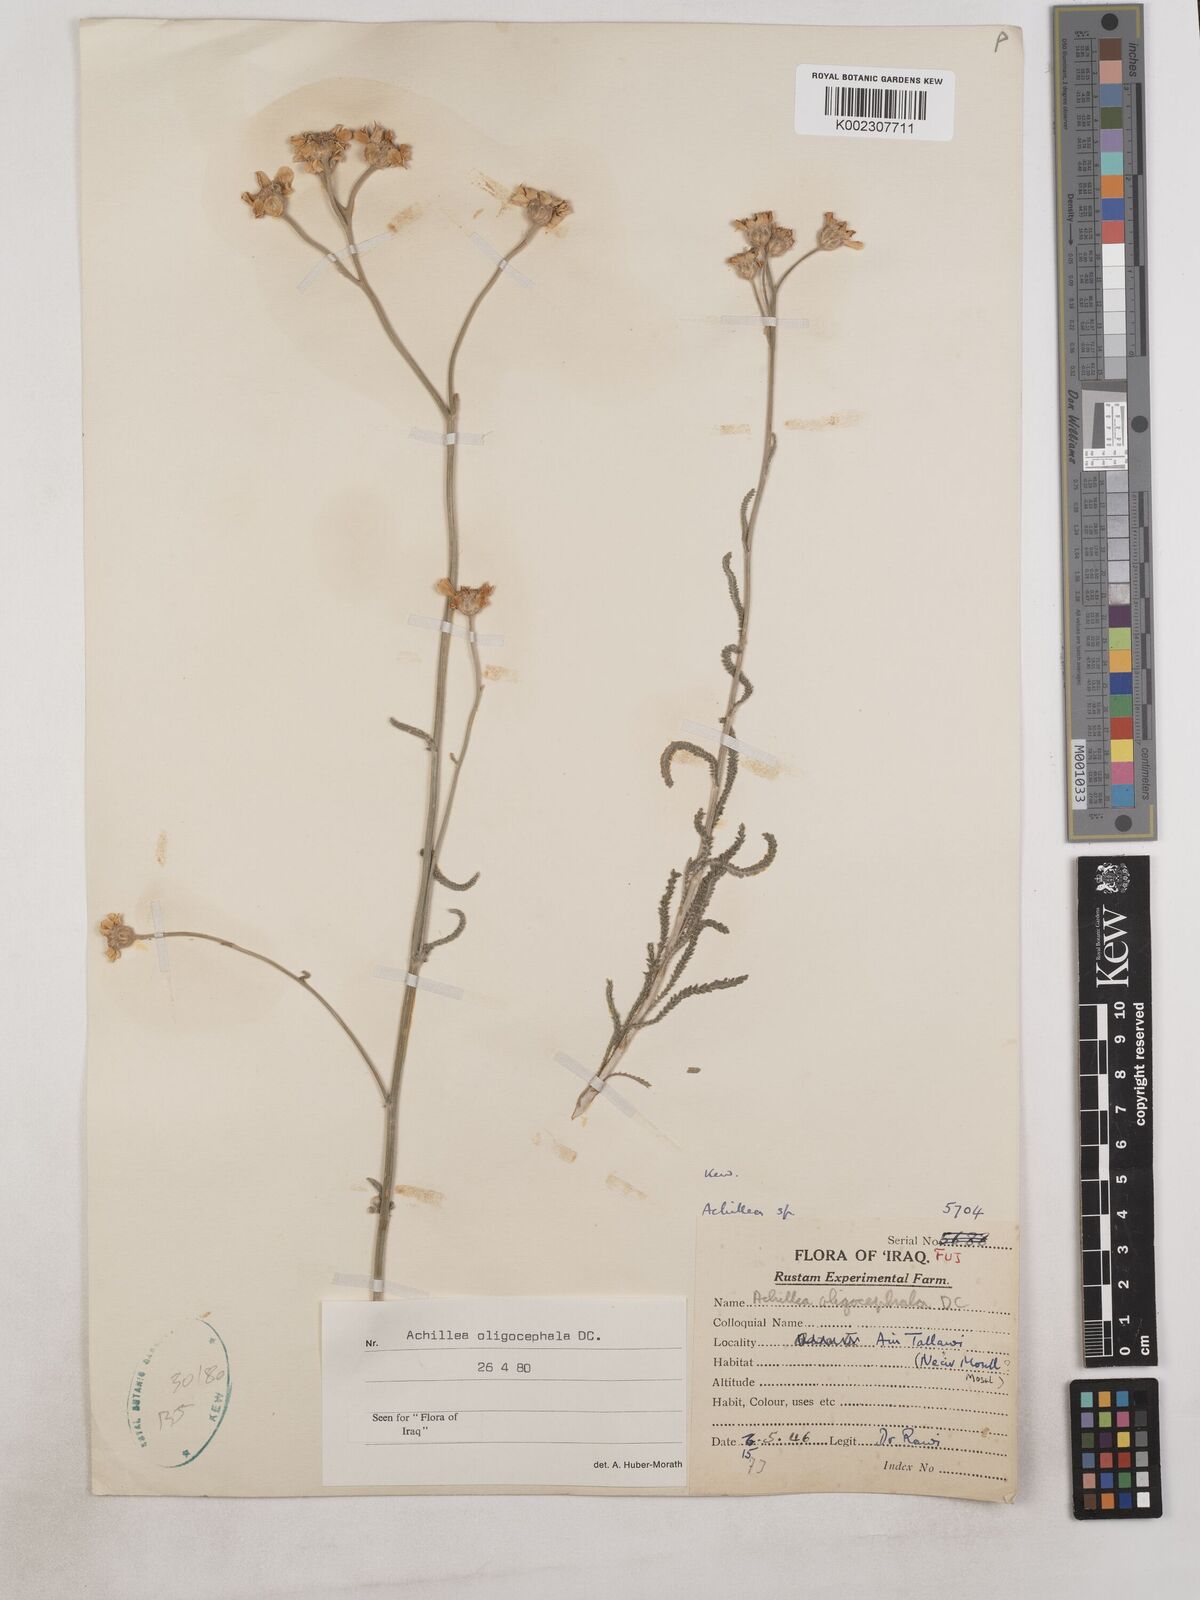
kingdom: Plantae
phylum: Tracheophyta
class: Magnoliopsida
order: Asterales
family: Asteraceae
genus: Achillea
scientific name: Achillea oligocephala
